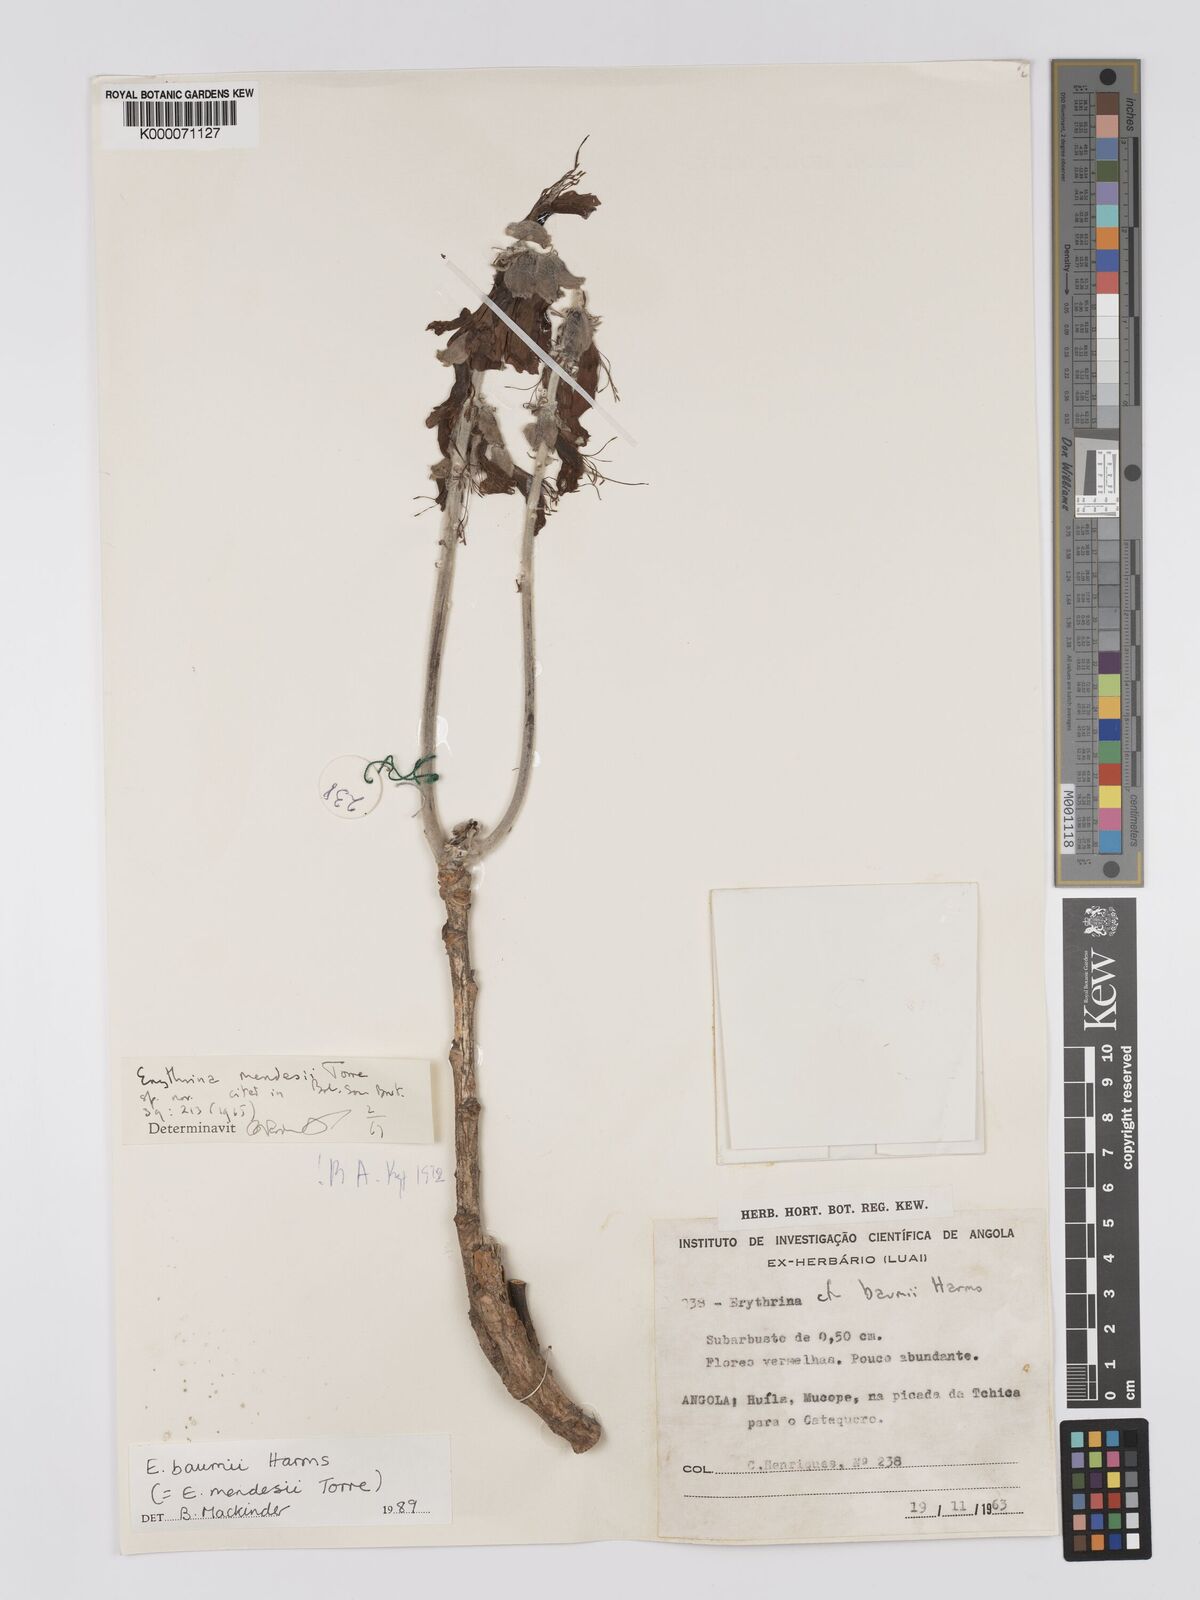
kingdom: Plantae
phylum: Tracheophyta
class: Magnoliopsida
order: Fabales
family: Fabaceae
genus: Erythrina
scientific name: Erythrina baumii
